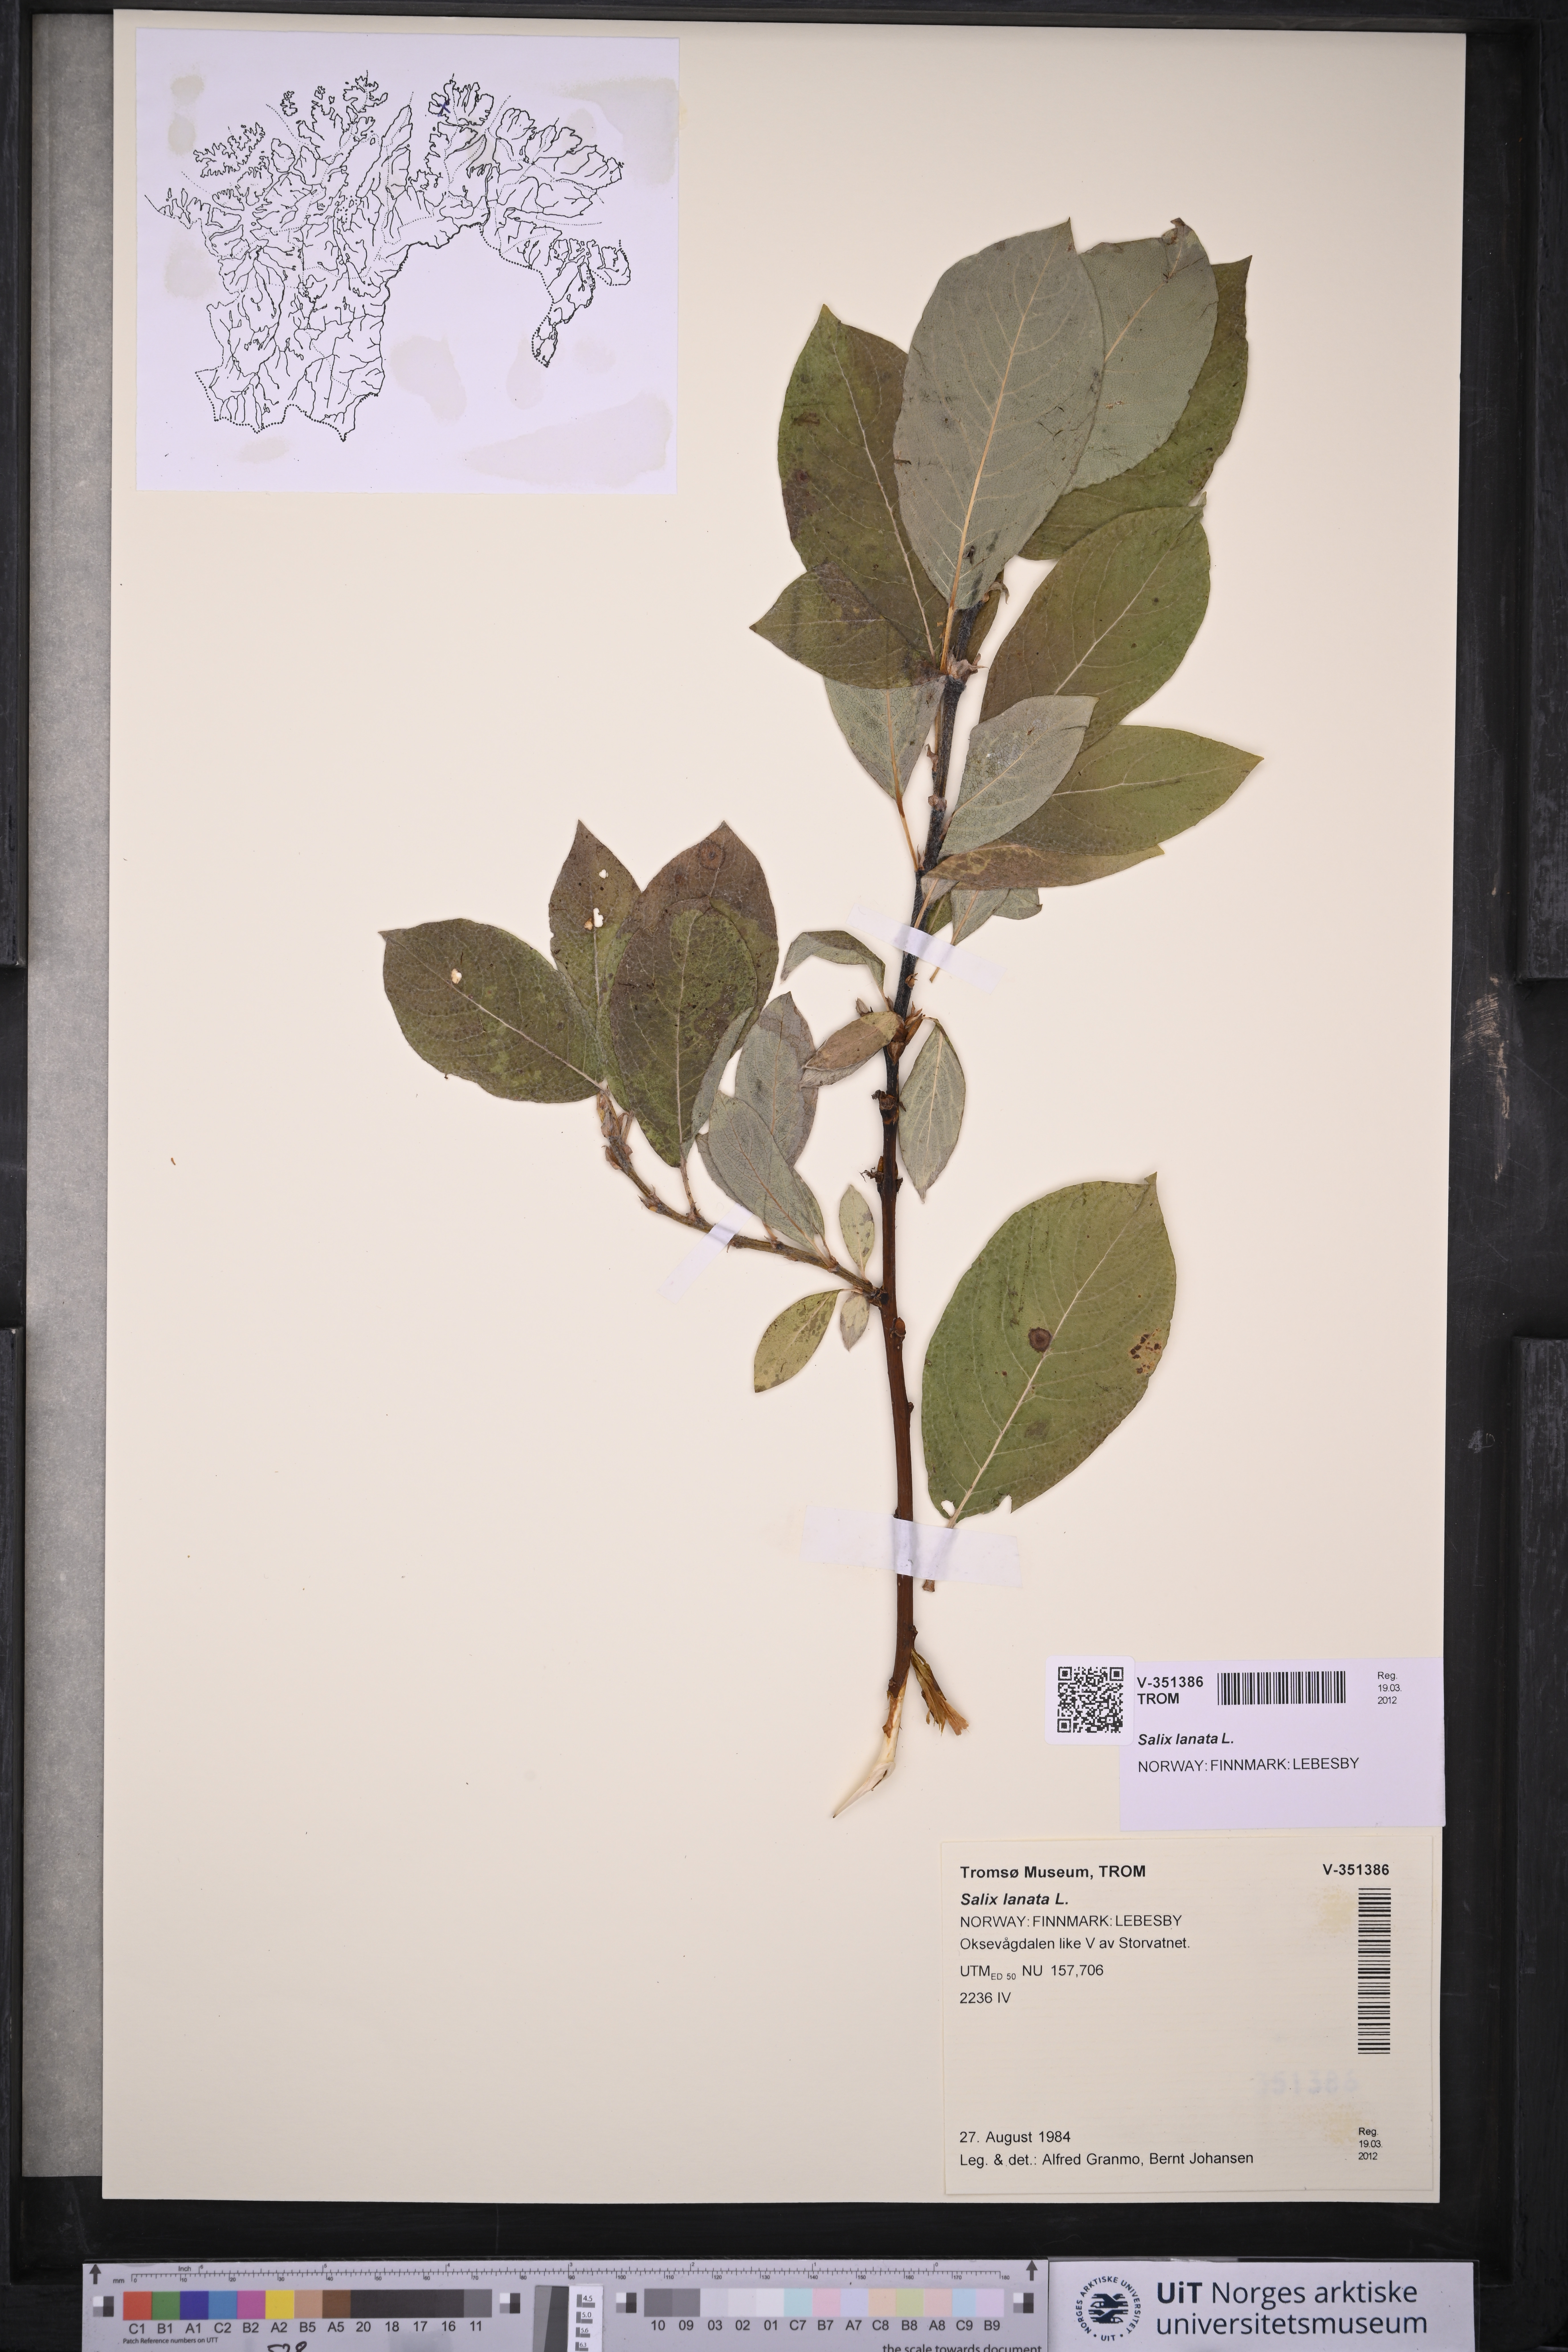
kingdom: Plantae
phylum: Tracheophyta
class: Magnoliopsida
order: Malpighiales
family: Salicaceae
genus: Salix
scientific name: Salix lanata
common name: Woolly willow
